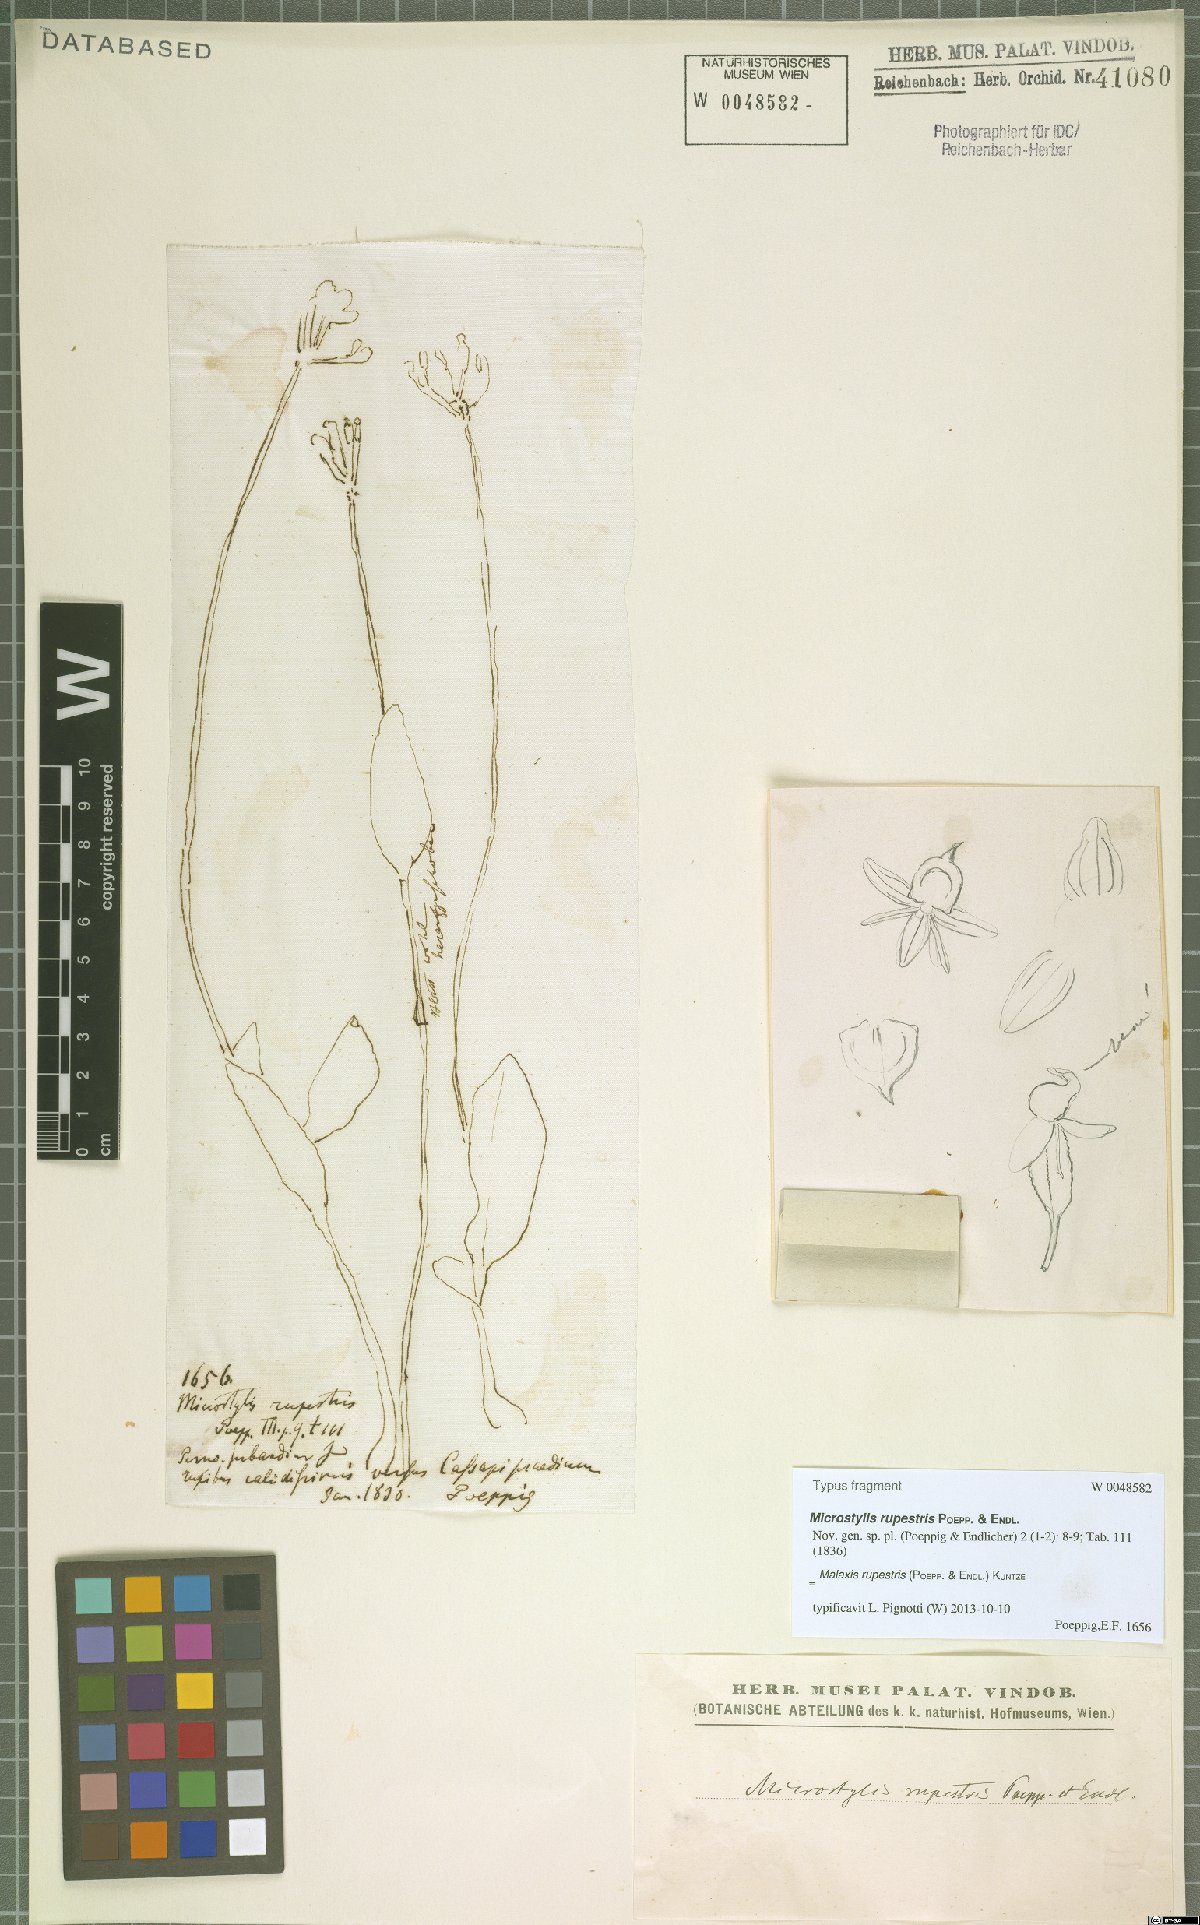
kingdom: Plantae
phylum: Tracheophyta
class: Liliopsida
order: Asparagales
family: Orchidaceae
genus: Malaxis
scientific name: Malaxis rupestris
